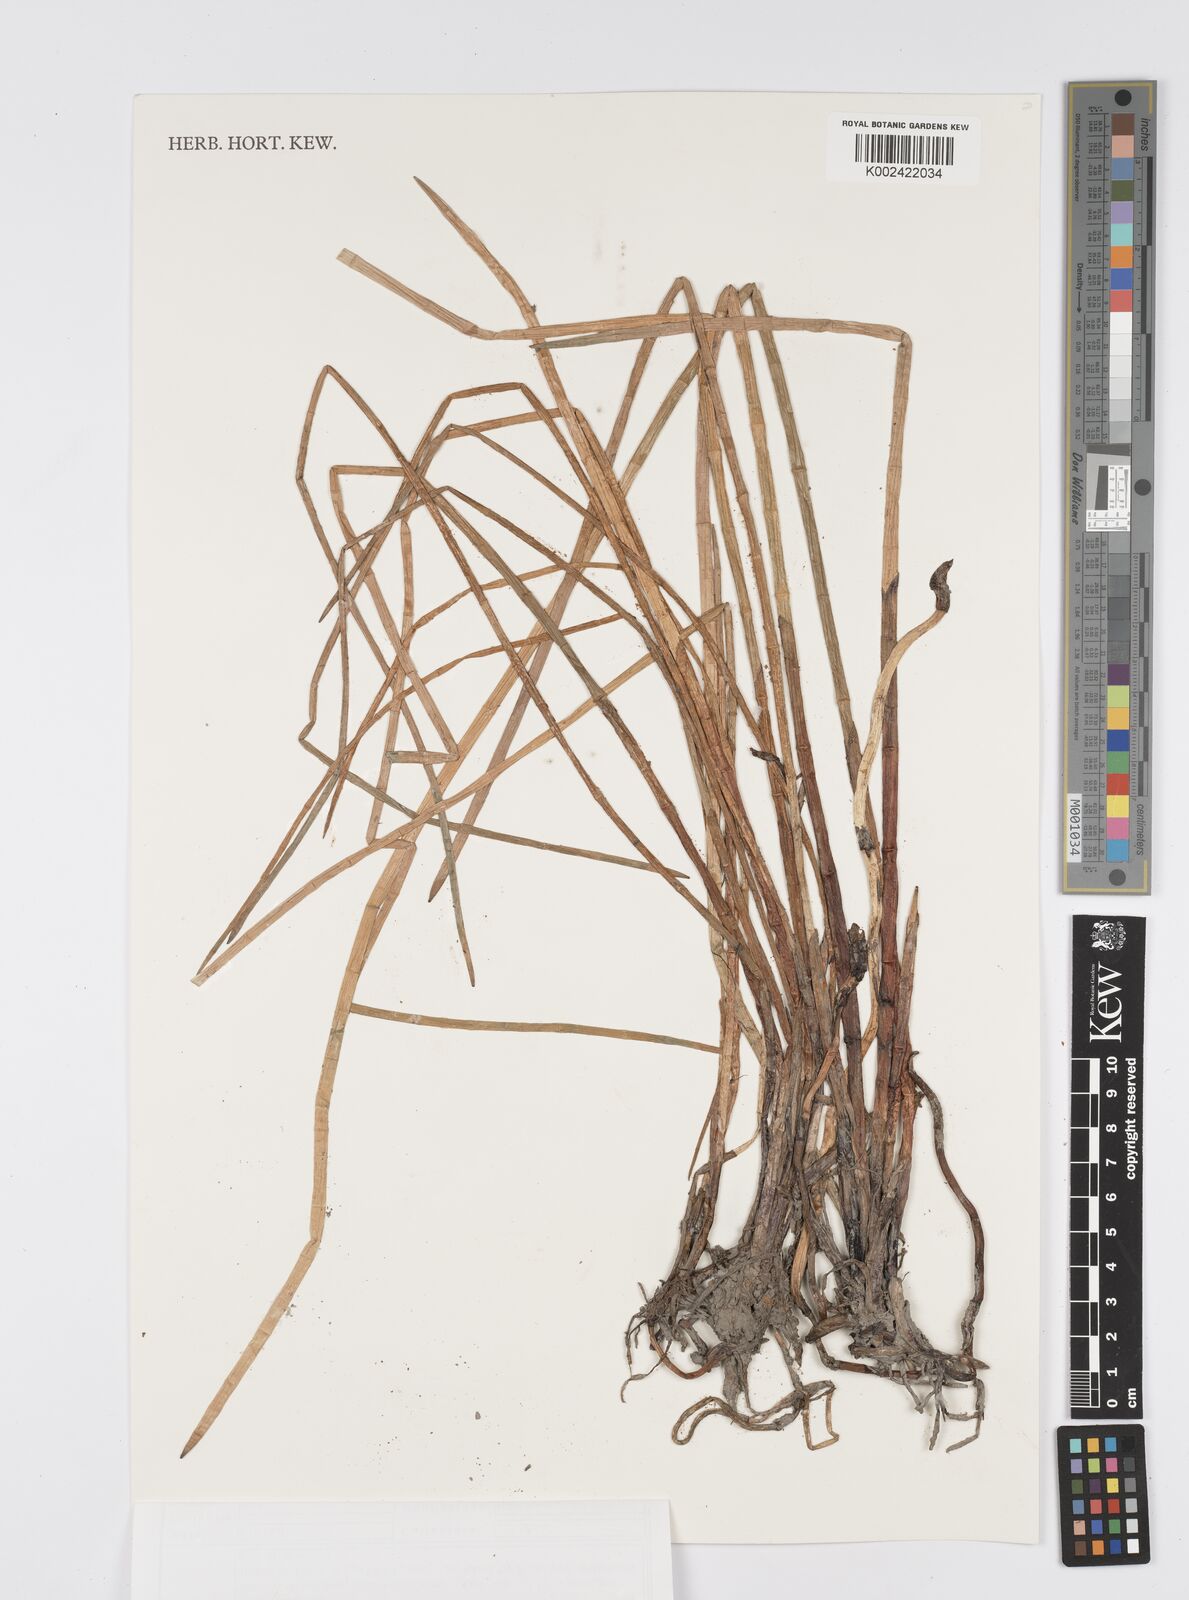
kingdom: Plantae
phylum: Tracheophyta
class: Liliopsida
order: Poales
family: Cyperaceae
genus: Eleocharis
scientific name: Eleocharis dulcis
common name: Chinese water chestnut
